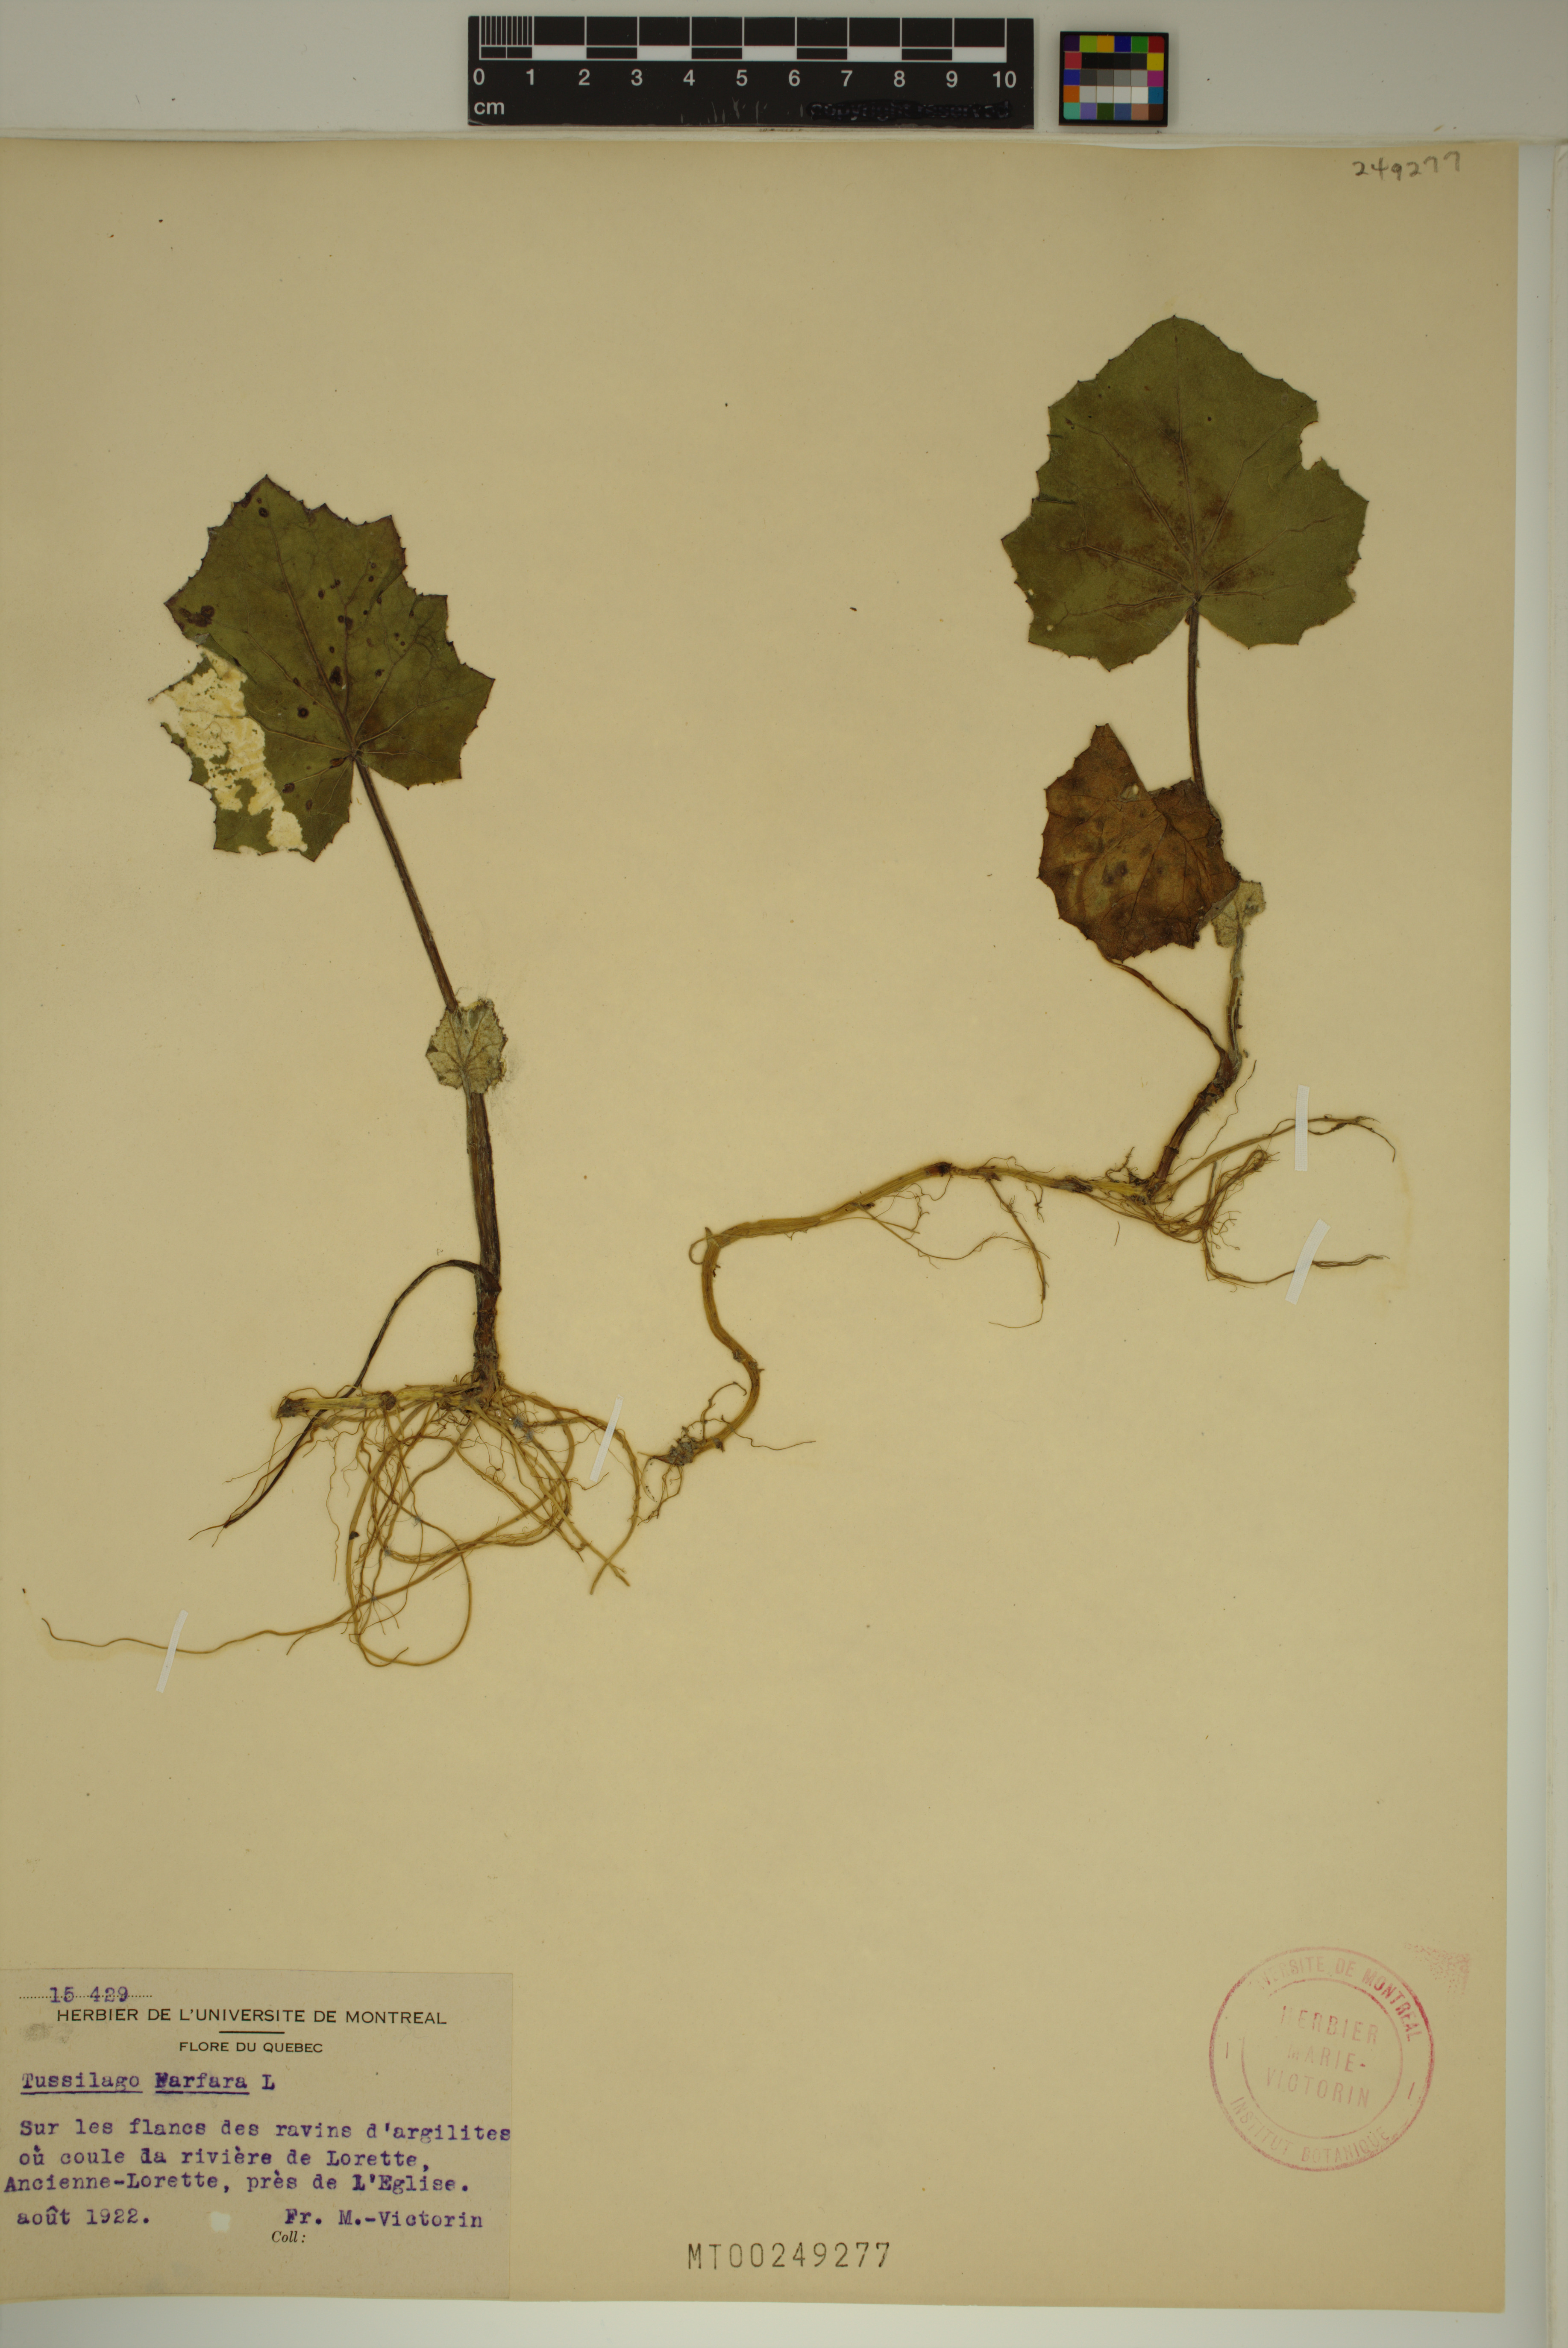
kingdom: Plantae
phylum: Tracheophyta
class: Magnoliopsida
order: Asterales
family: Asteraceae
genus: Tussilago
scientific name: Tussilago farfara
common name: Coltsfoot
